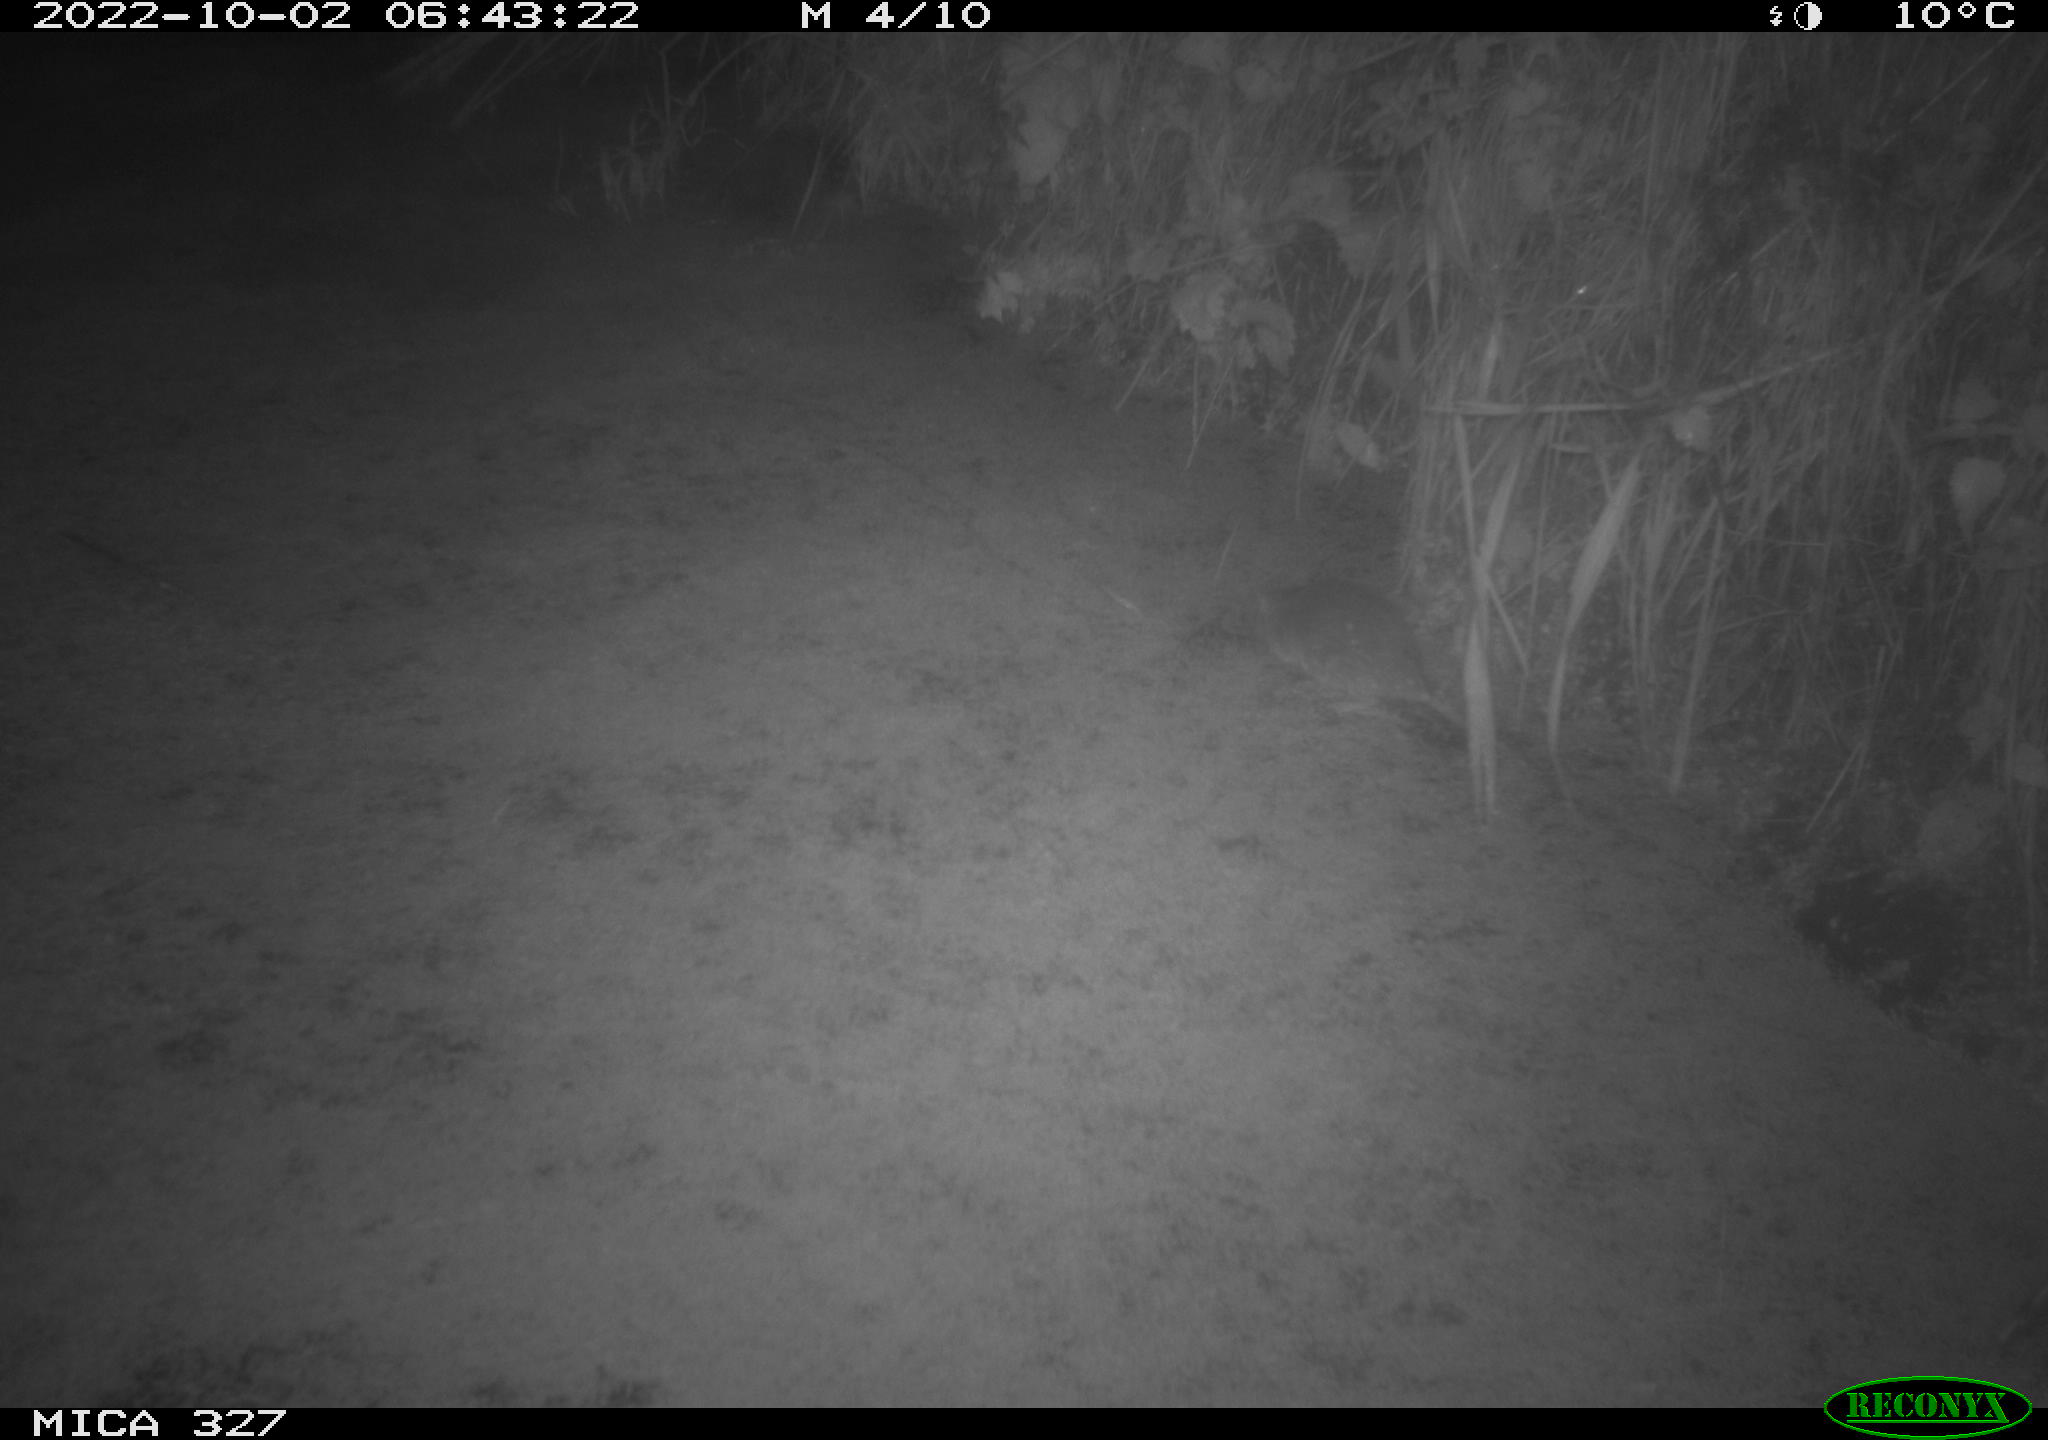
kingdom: Animalia
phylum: Chordata
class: Mammalia
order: Rodentia
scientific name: Rodentia
